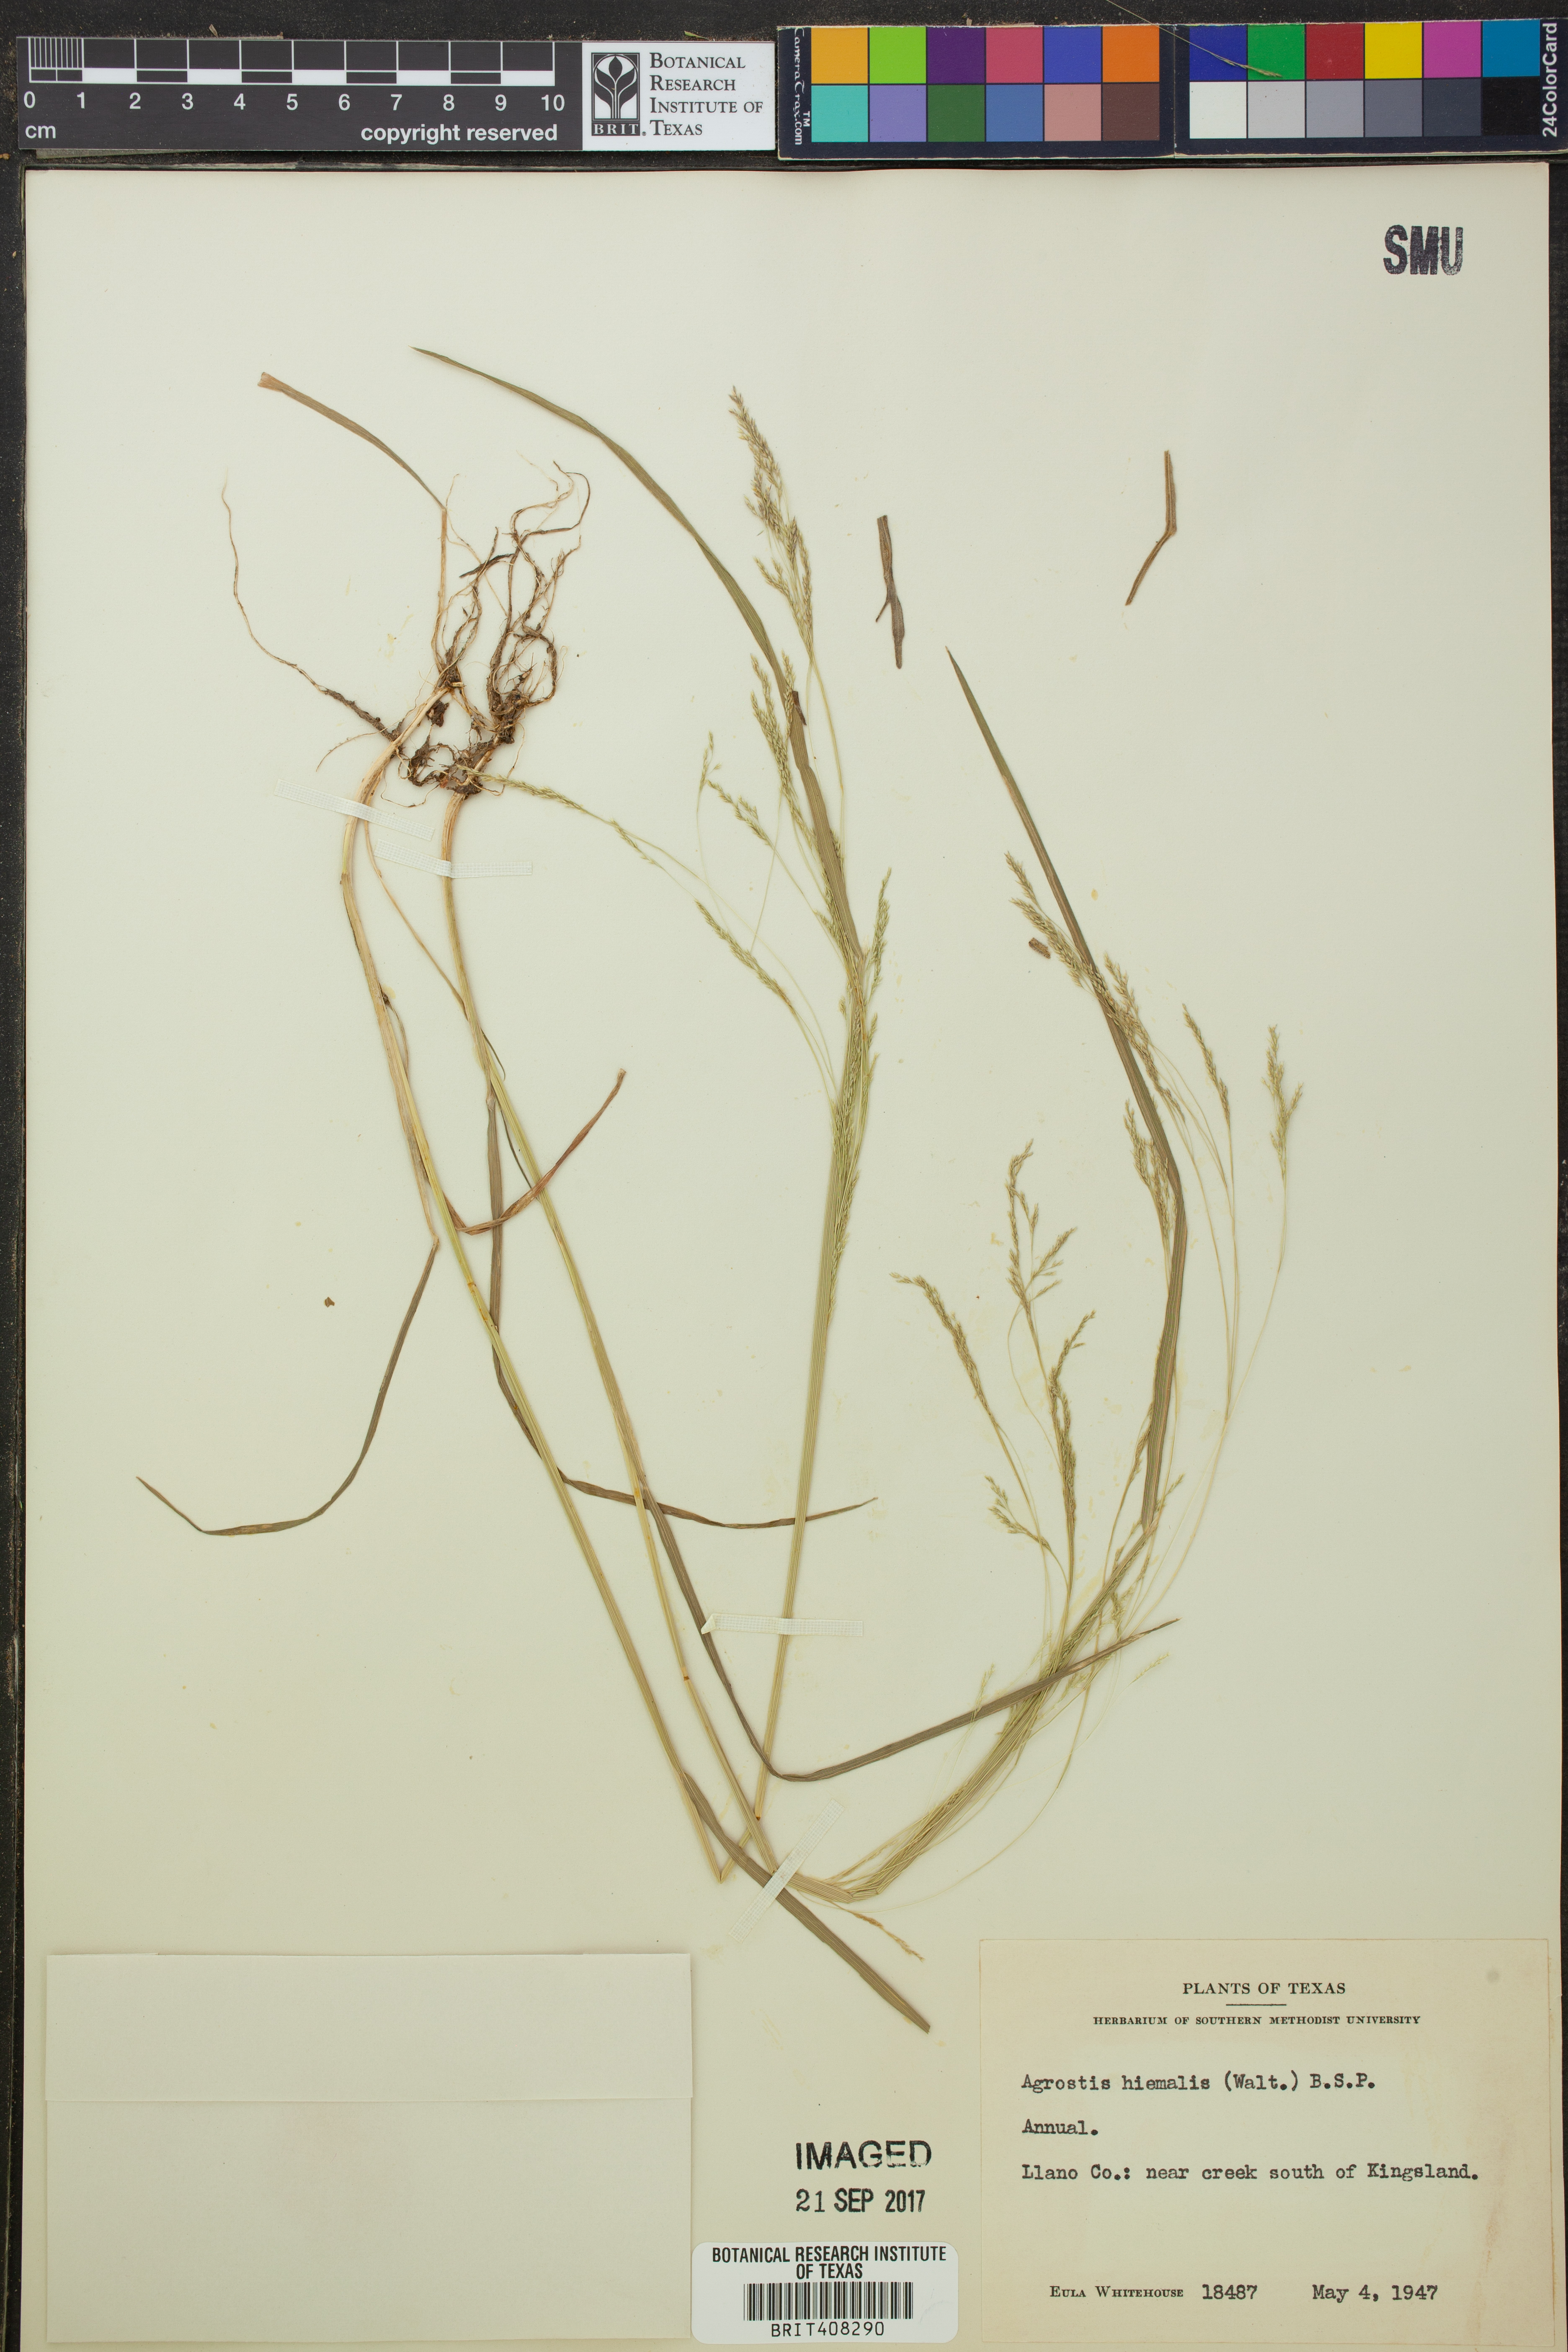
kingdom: Plantae
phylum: Tracheophyta
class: Liliopsida
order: Poales
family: Poaceae
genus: Agrostis
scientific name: Agrostis hyemalis
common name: Small bent
